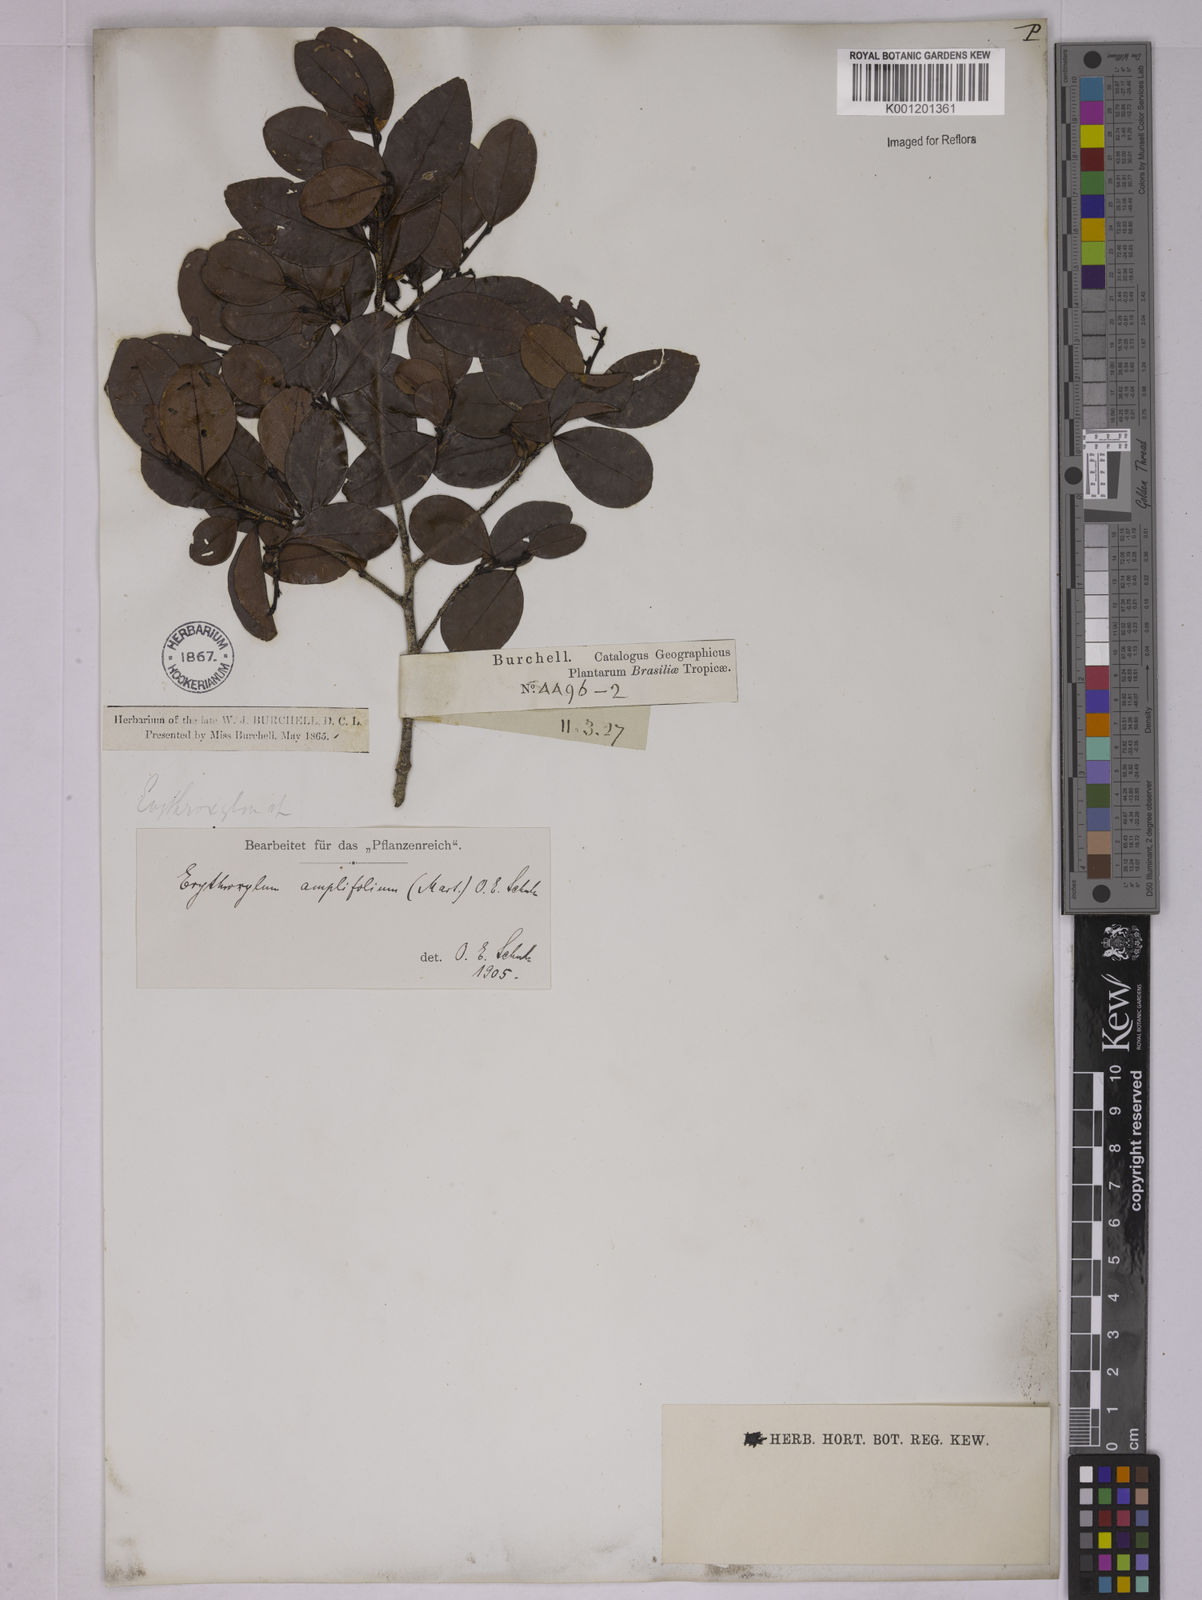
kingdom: Plantae
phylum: Tracheophyta
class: Magnoliopsida
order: Malpighiales
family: Erythroxylaceae
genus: Erythroxylum
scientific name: Erythroxylum
